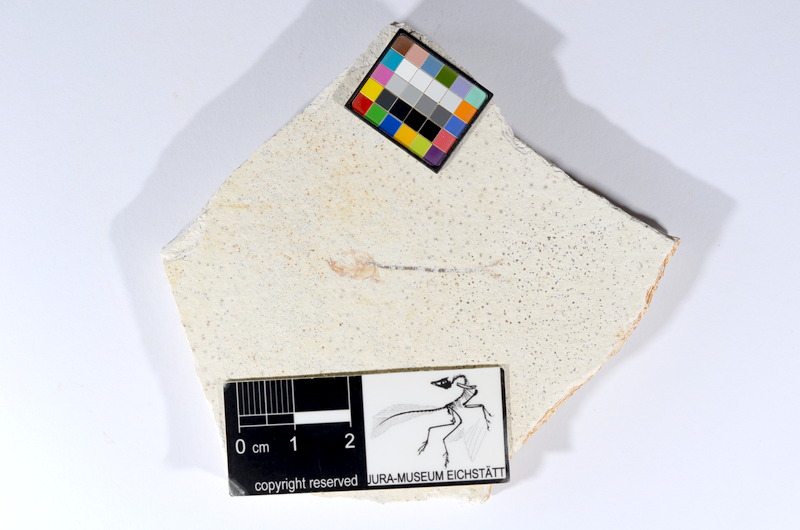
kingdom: Animalia
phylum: Chordata
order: Salmoniformes
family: Orthogonikleithridae
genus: Orthogonikleithrus
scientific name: Orthogonikleithrus hoelli
